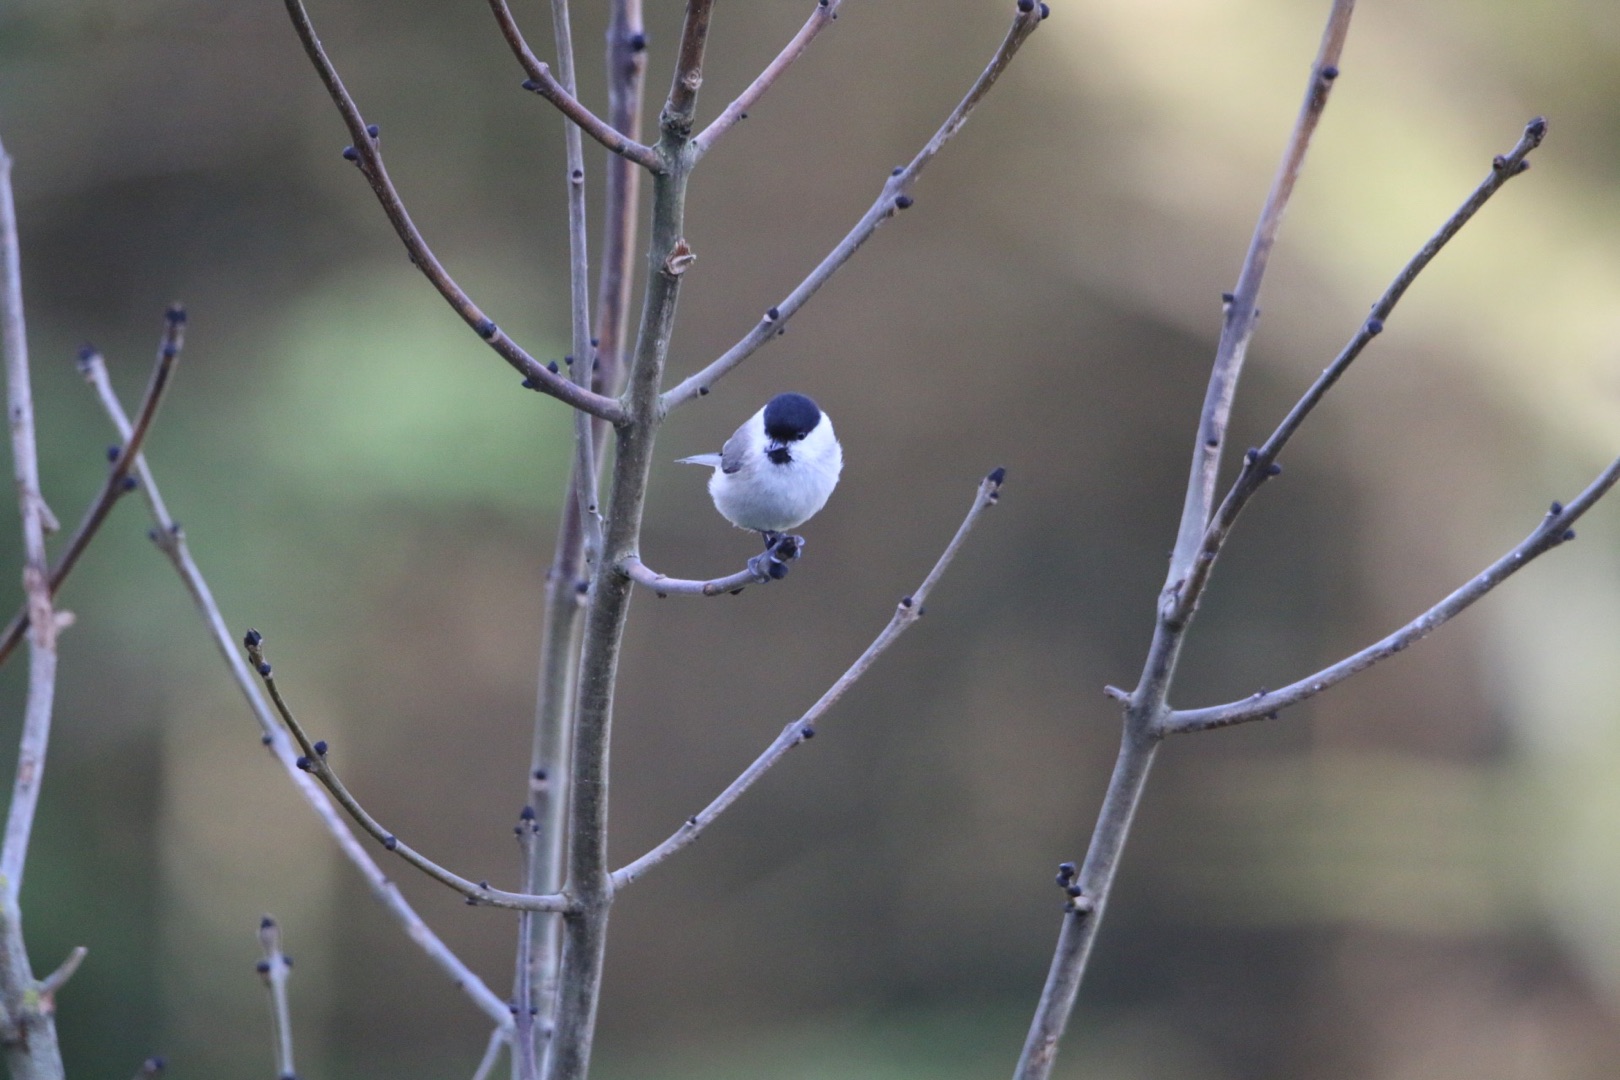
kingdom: Animalia
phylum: Chordata
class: Aves
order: Passeriformes
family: Paridae
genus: Poecile
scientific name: Poecile palustris
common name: Sumpmejse
